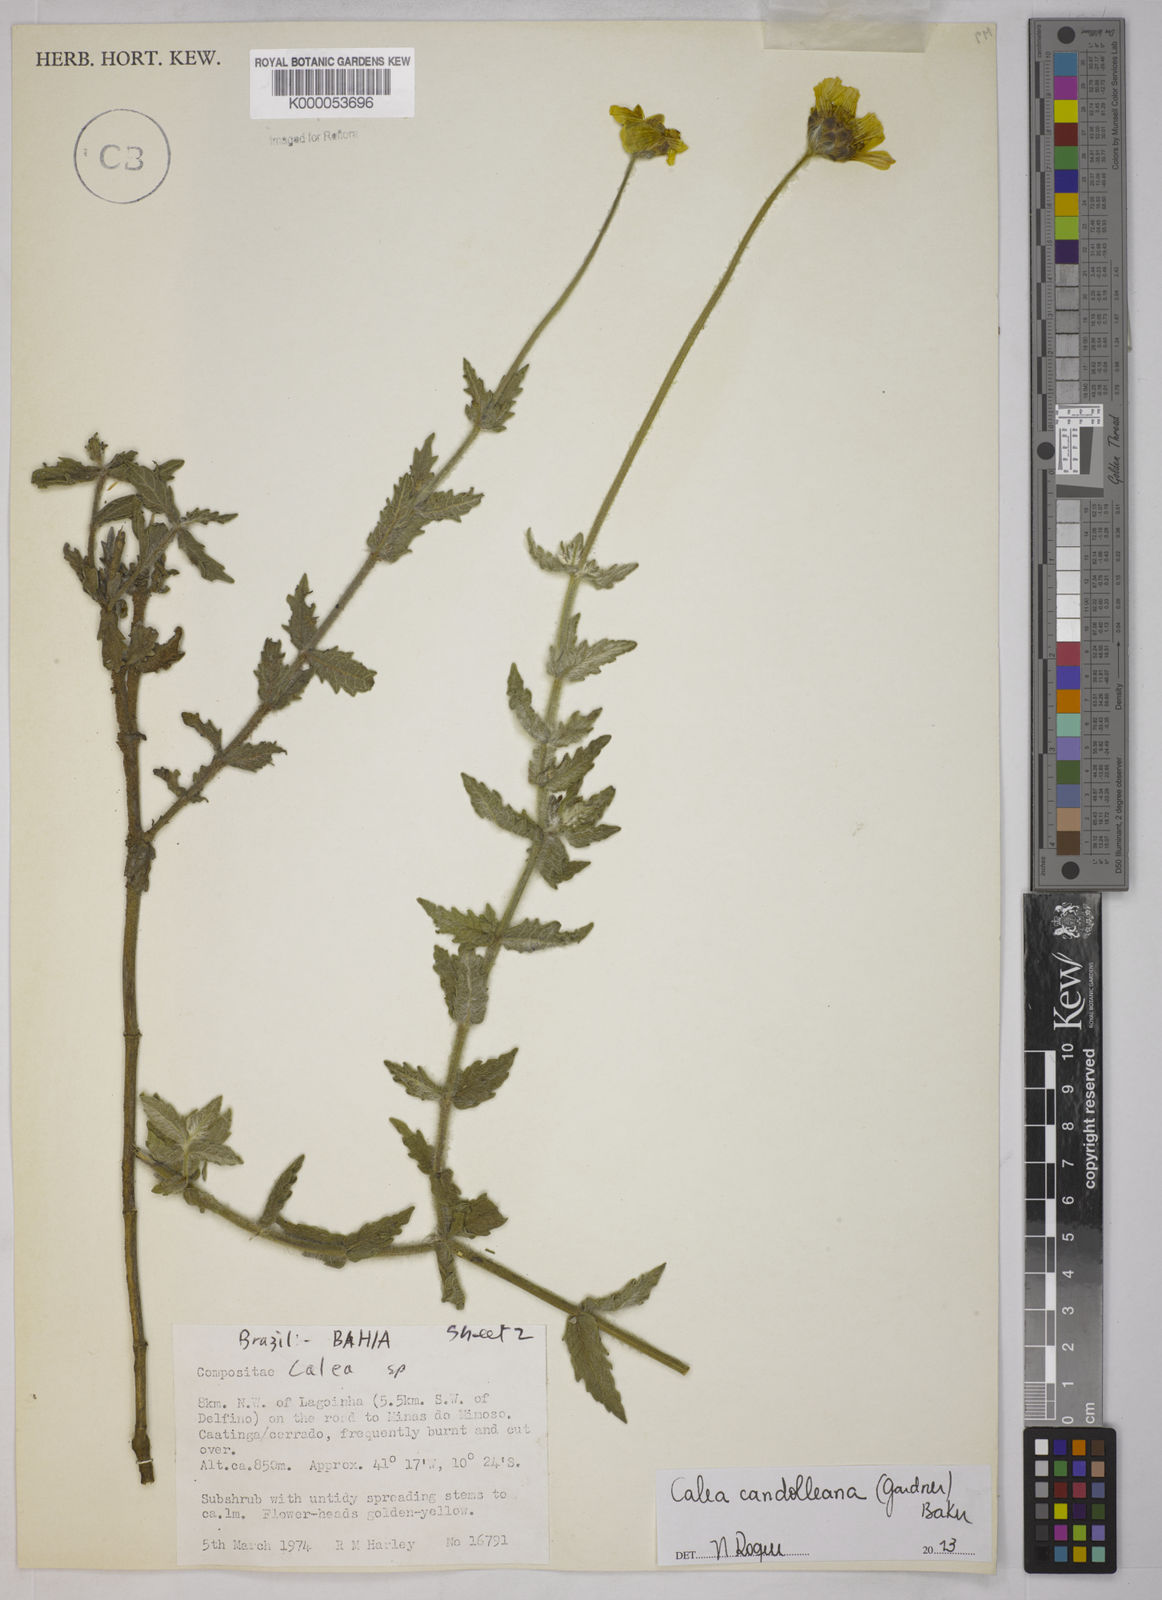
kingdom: Plantae
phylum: Tracheophyta
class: Magnoliopsida
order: Asterales
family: Asteraceae
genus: Calea
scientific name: Calea pilosa
